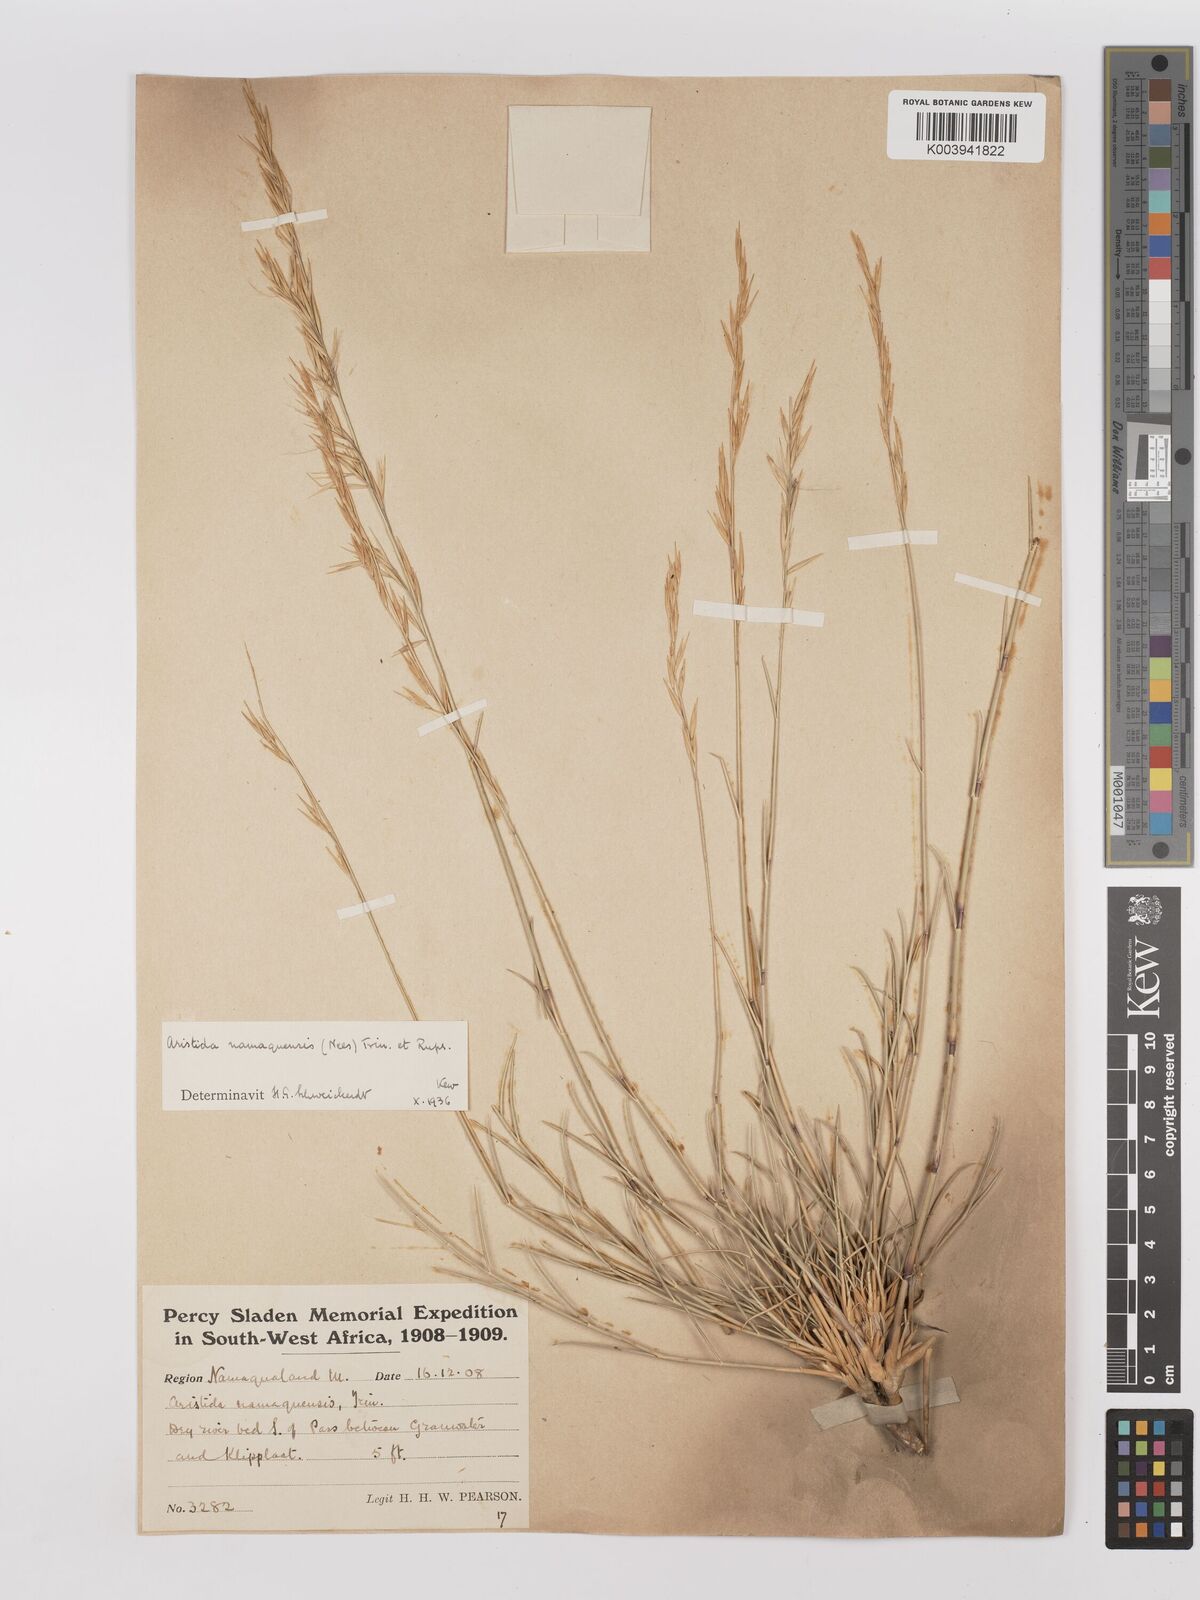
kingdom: Plantae
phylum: Tracheophyta
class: Liliopsida
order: Poales
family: Poaceae
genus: Stipagrostis
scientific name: Stipagrostis namaquensis
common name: River bushman grass
